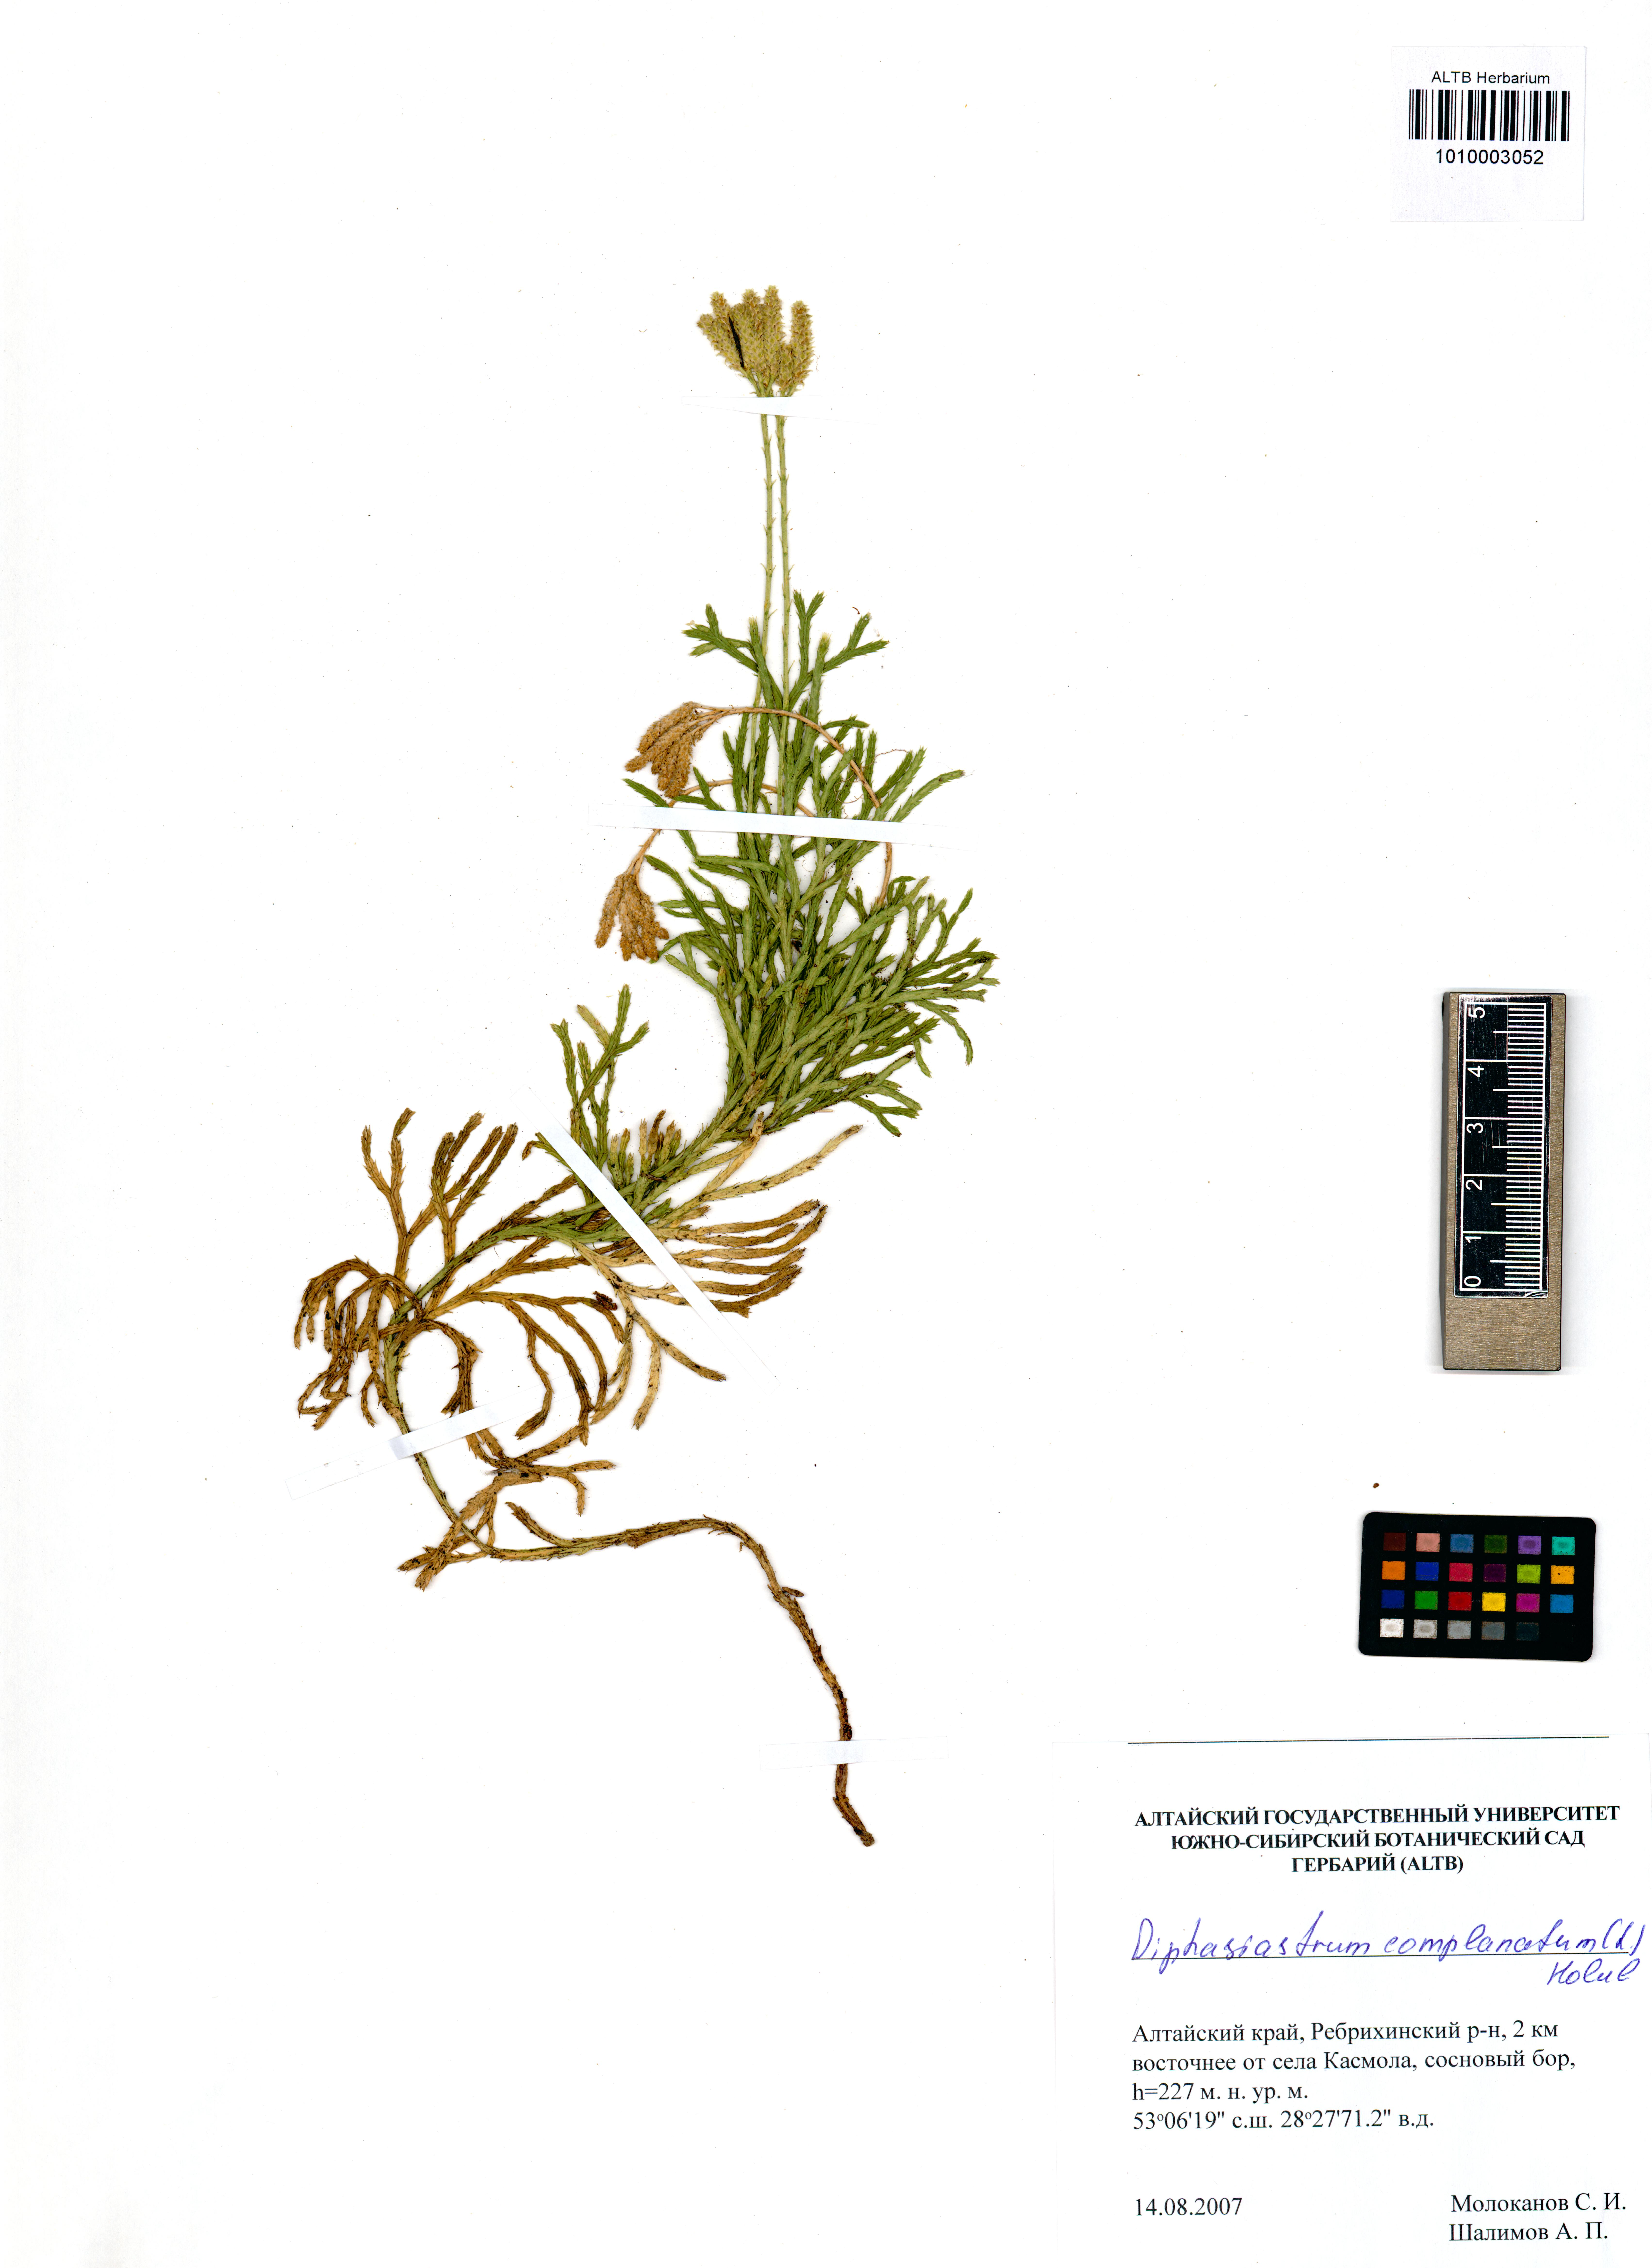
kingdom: Plantae
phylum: Tracheophyta
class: Lycopodiopsida
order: Lycopodiales
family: Lycopodiaceae
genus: Diphasiastrum
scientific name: Diphasiastrum complanatum
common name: Northern running-pine
